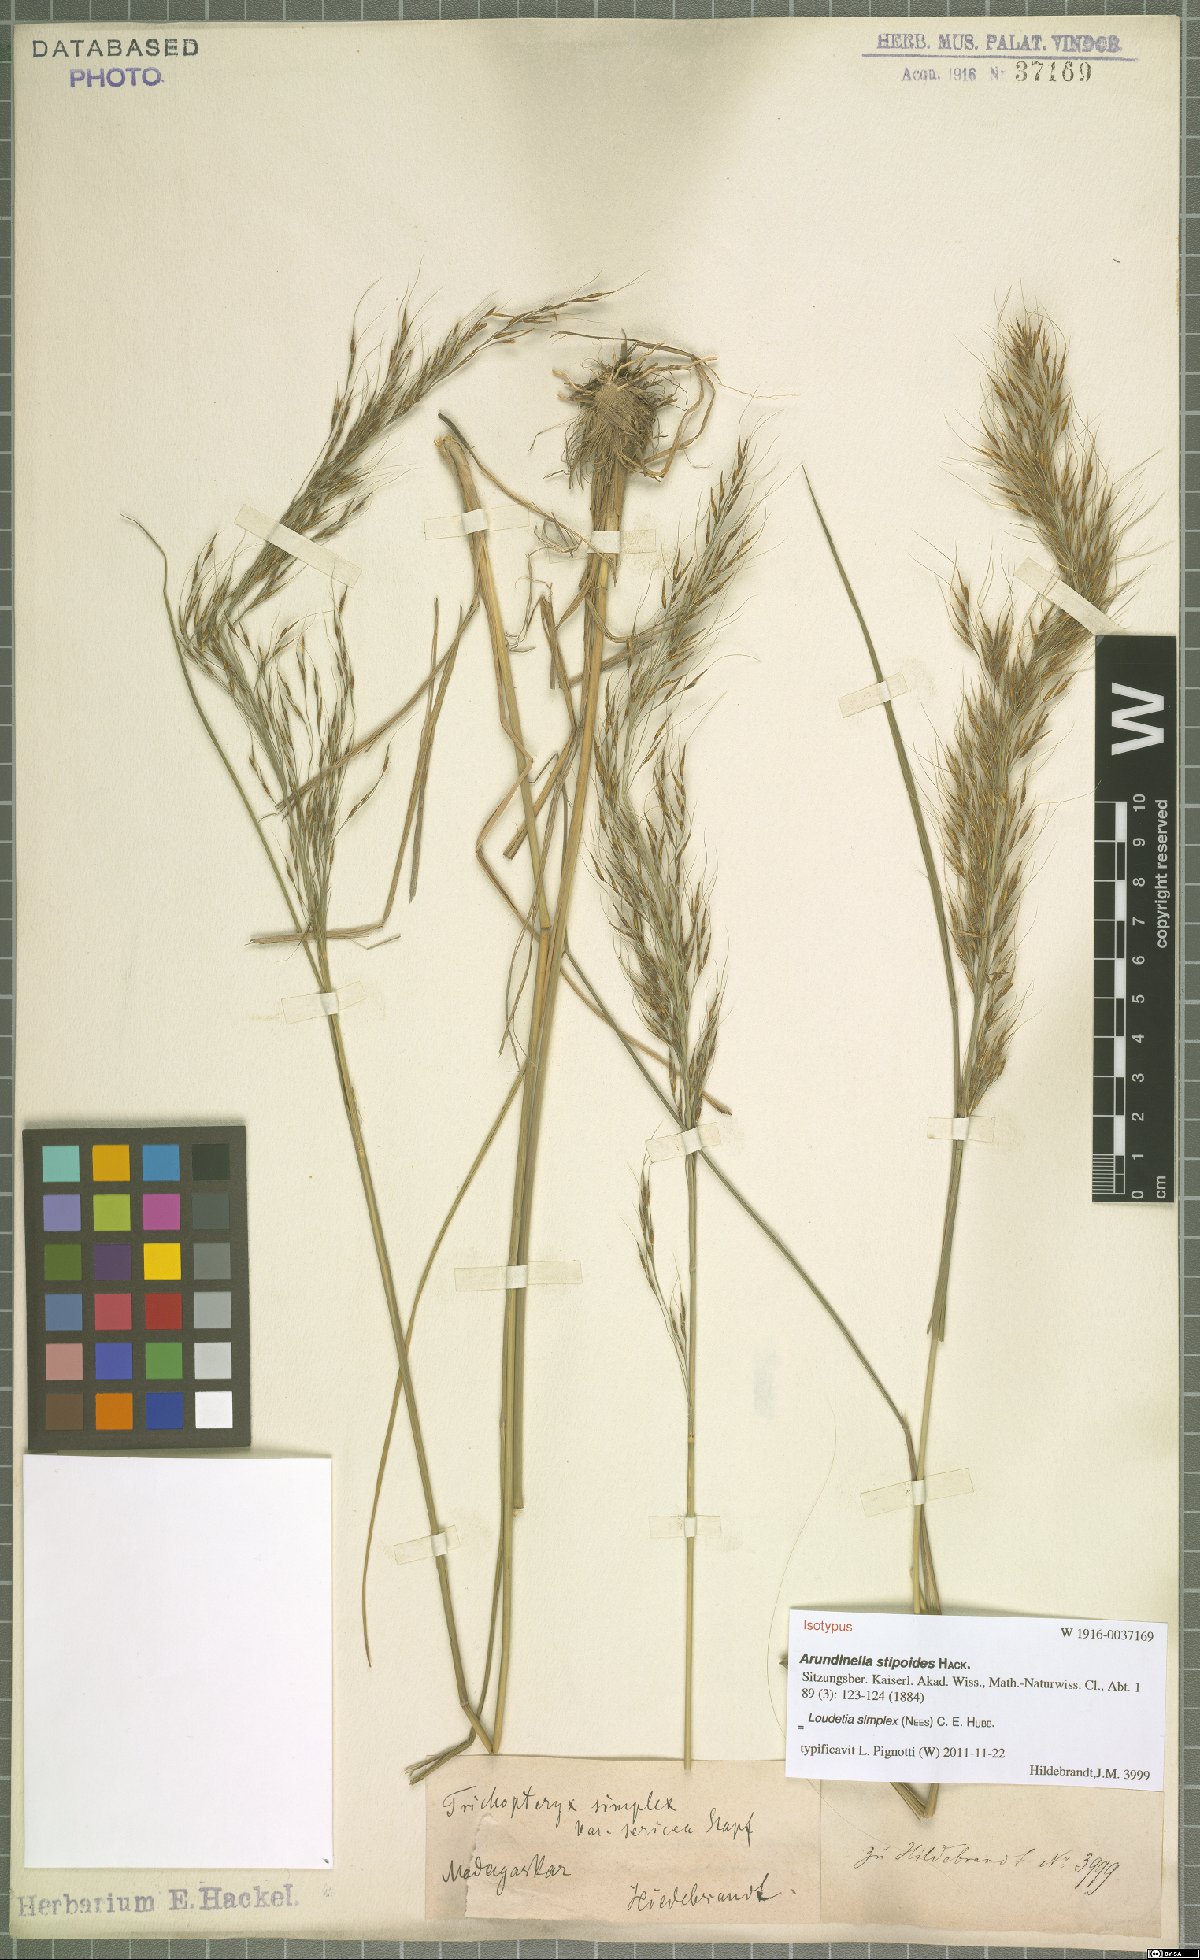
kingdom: Plantae
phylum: Tracheophyta
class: Liliopsida
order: Poales
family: Poaceae
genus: Loudetia
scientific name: Loudetia simplex
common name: Common russet grass
